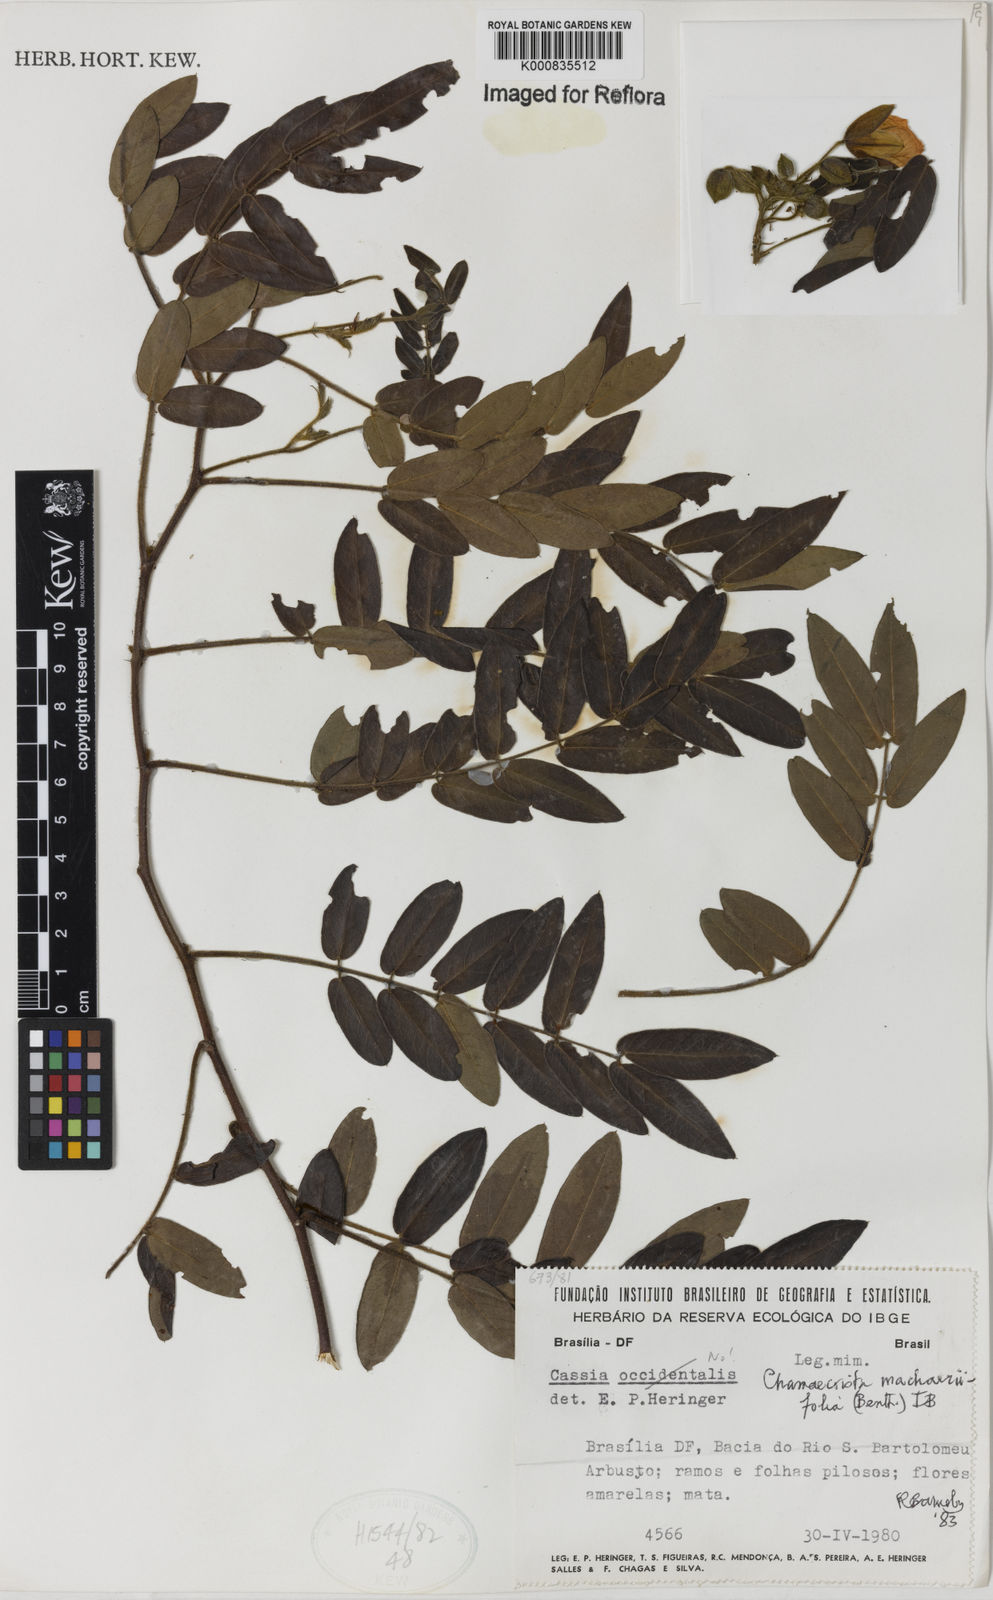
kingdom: Plantae
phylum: Tracheophyta
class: Magnoliopsida
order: Fabales
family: Fabaceae
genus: Chamaecrista
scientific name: Chamaecrista machaeriifolia
